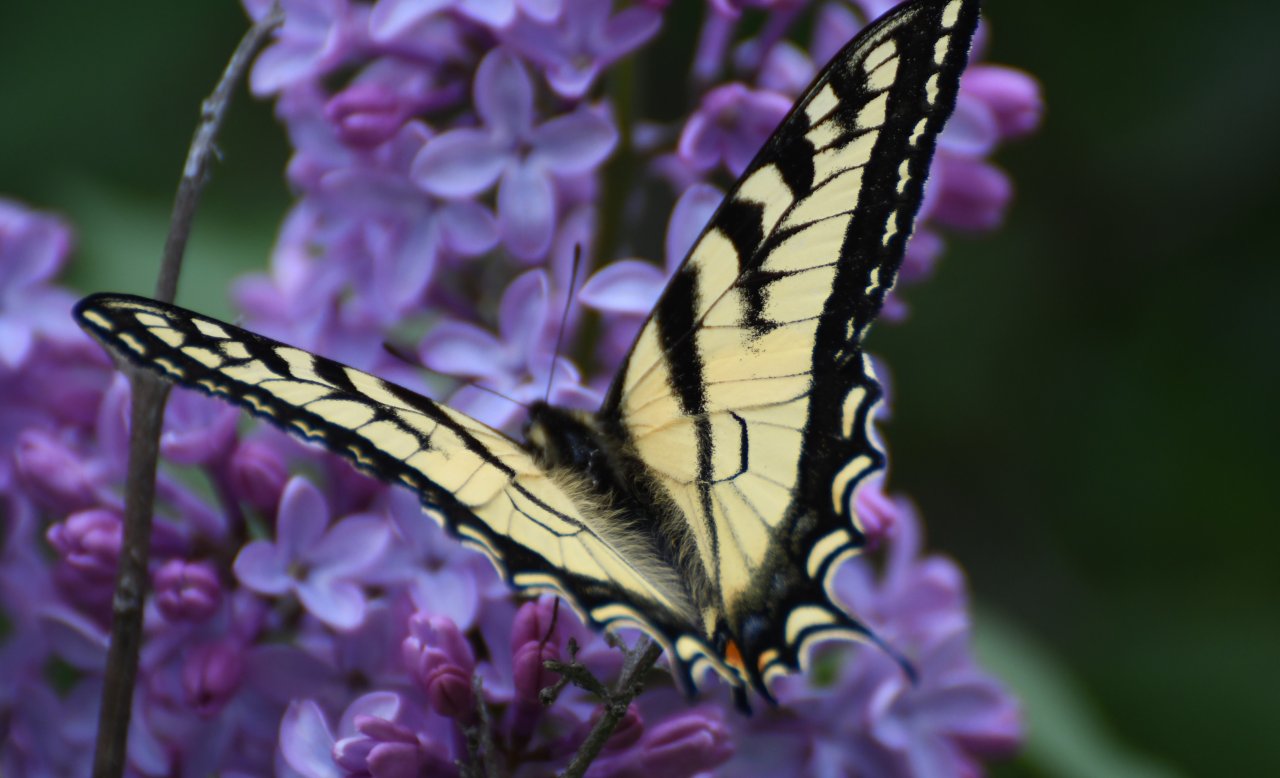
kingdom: Animalia
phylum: Arthropoda
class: Insecta
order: Lepidoptera
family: Papilionidae
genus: Pterourus
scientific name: Pterourus canadensis
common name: Canadian Tiger Swallowtail
